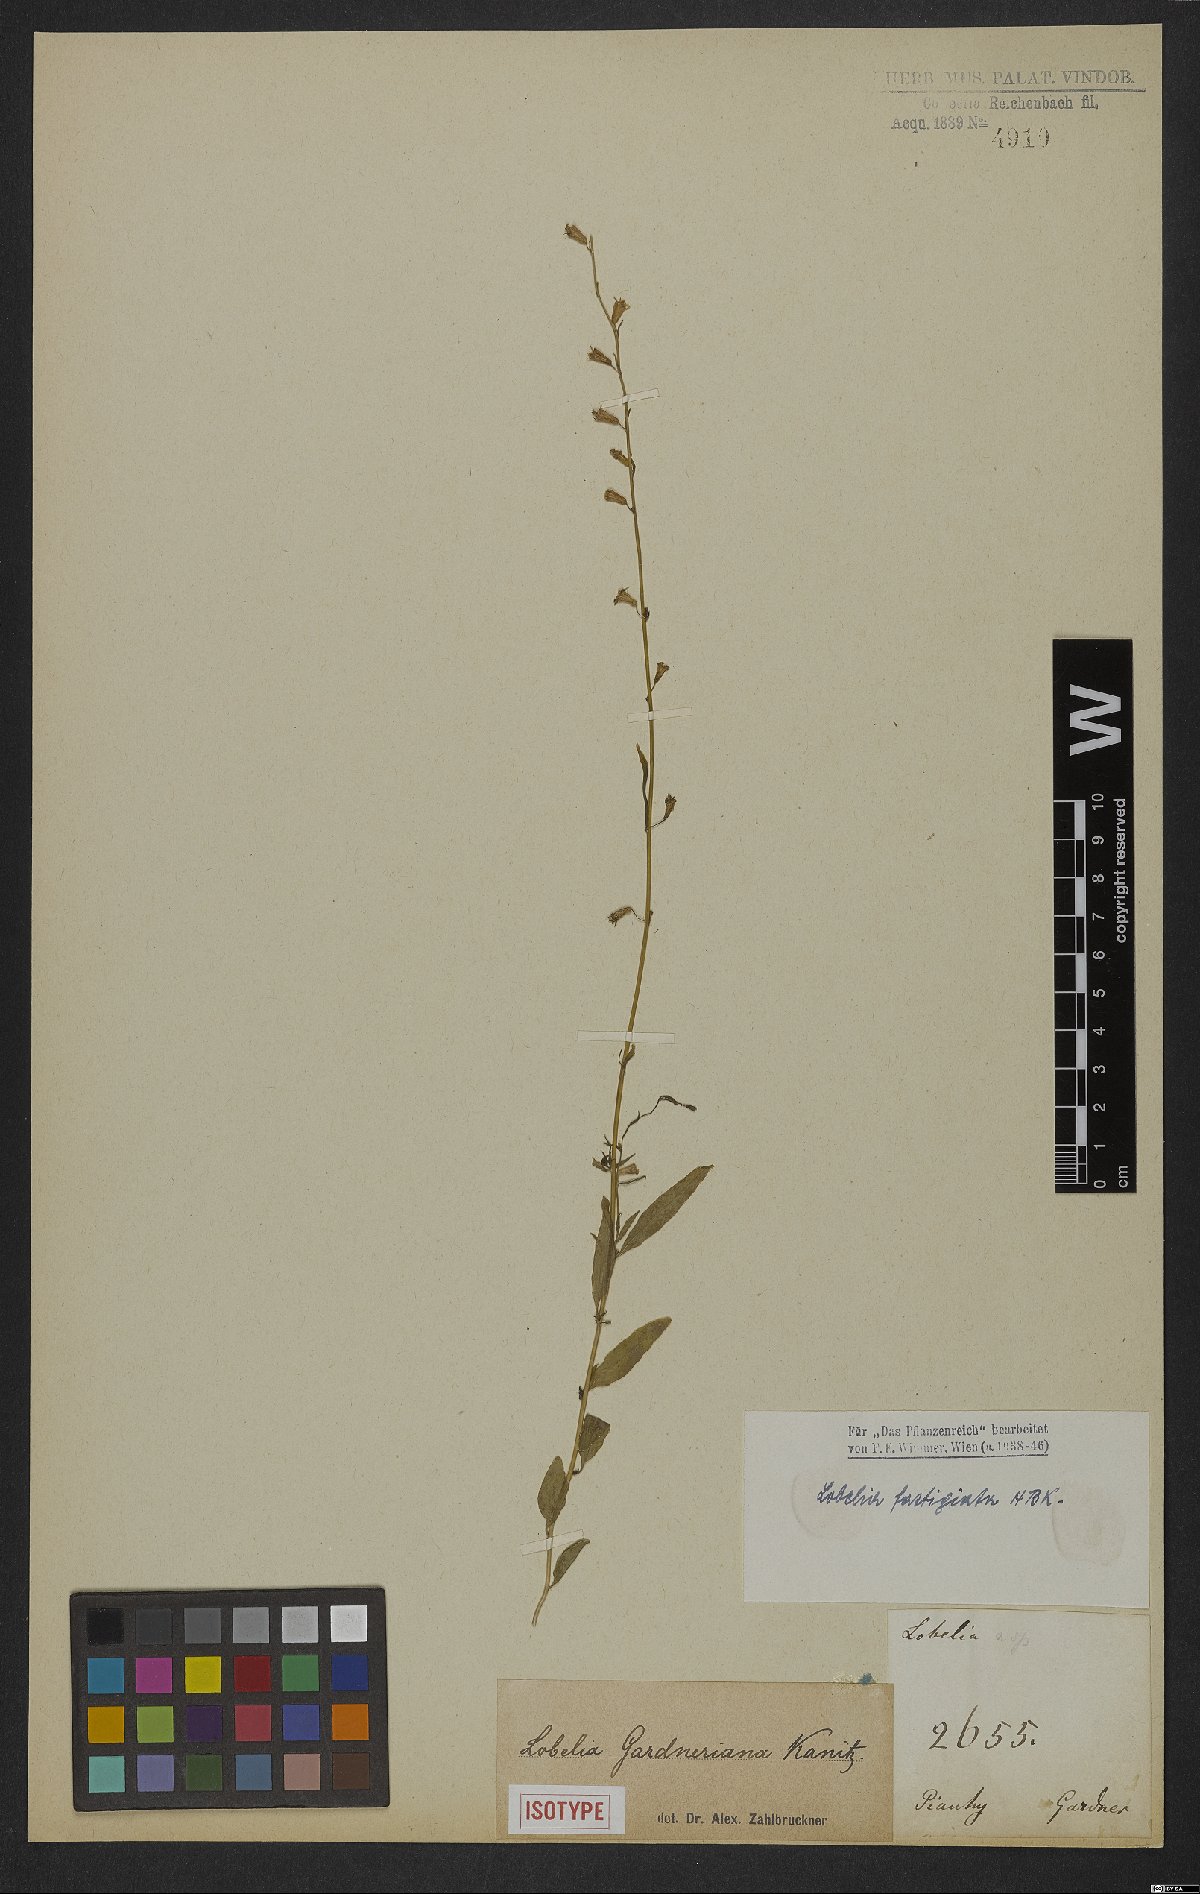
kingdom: Plantae
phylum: Tracheophyta
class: Magnoliopsida
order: Asterales
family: Campanulaceae
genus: Lobelia
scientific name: Lobelia fastigiata
